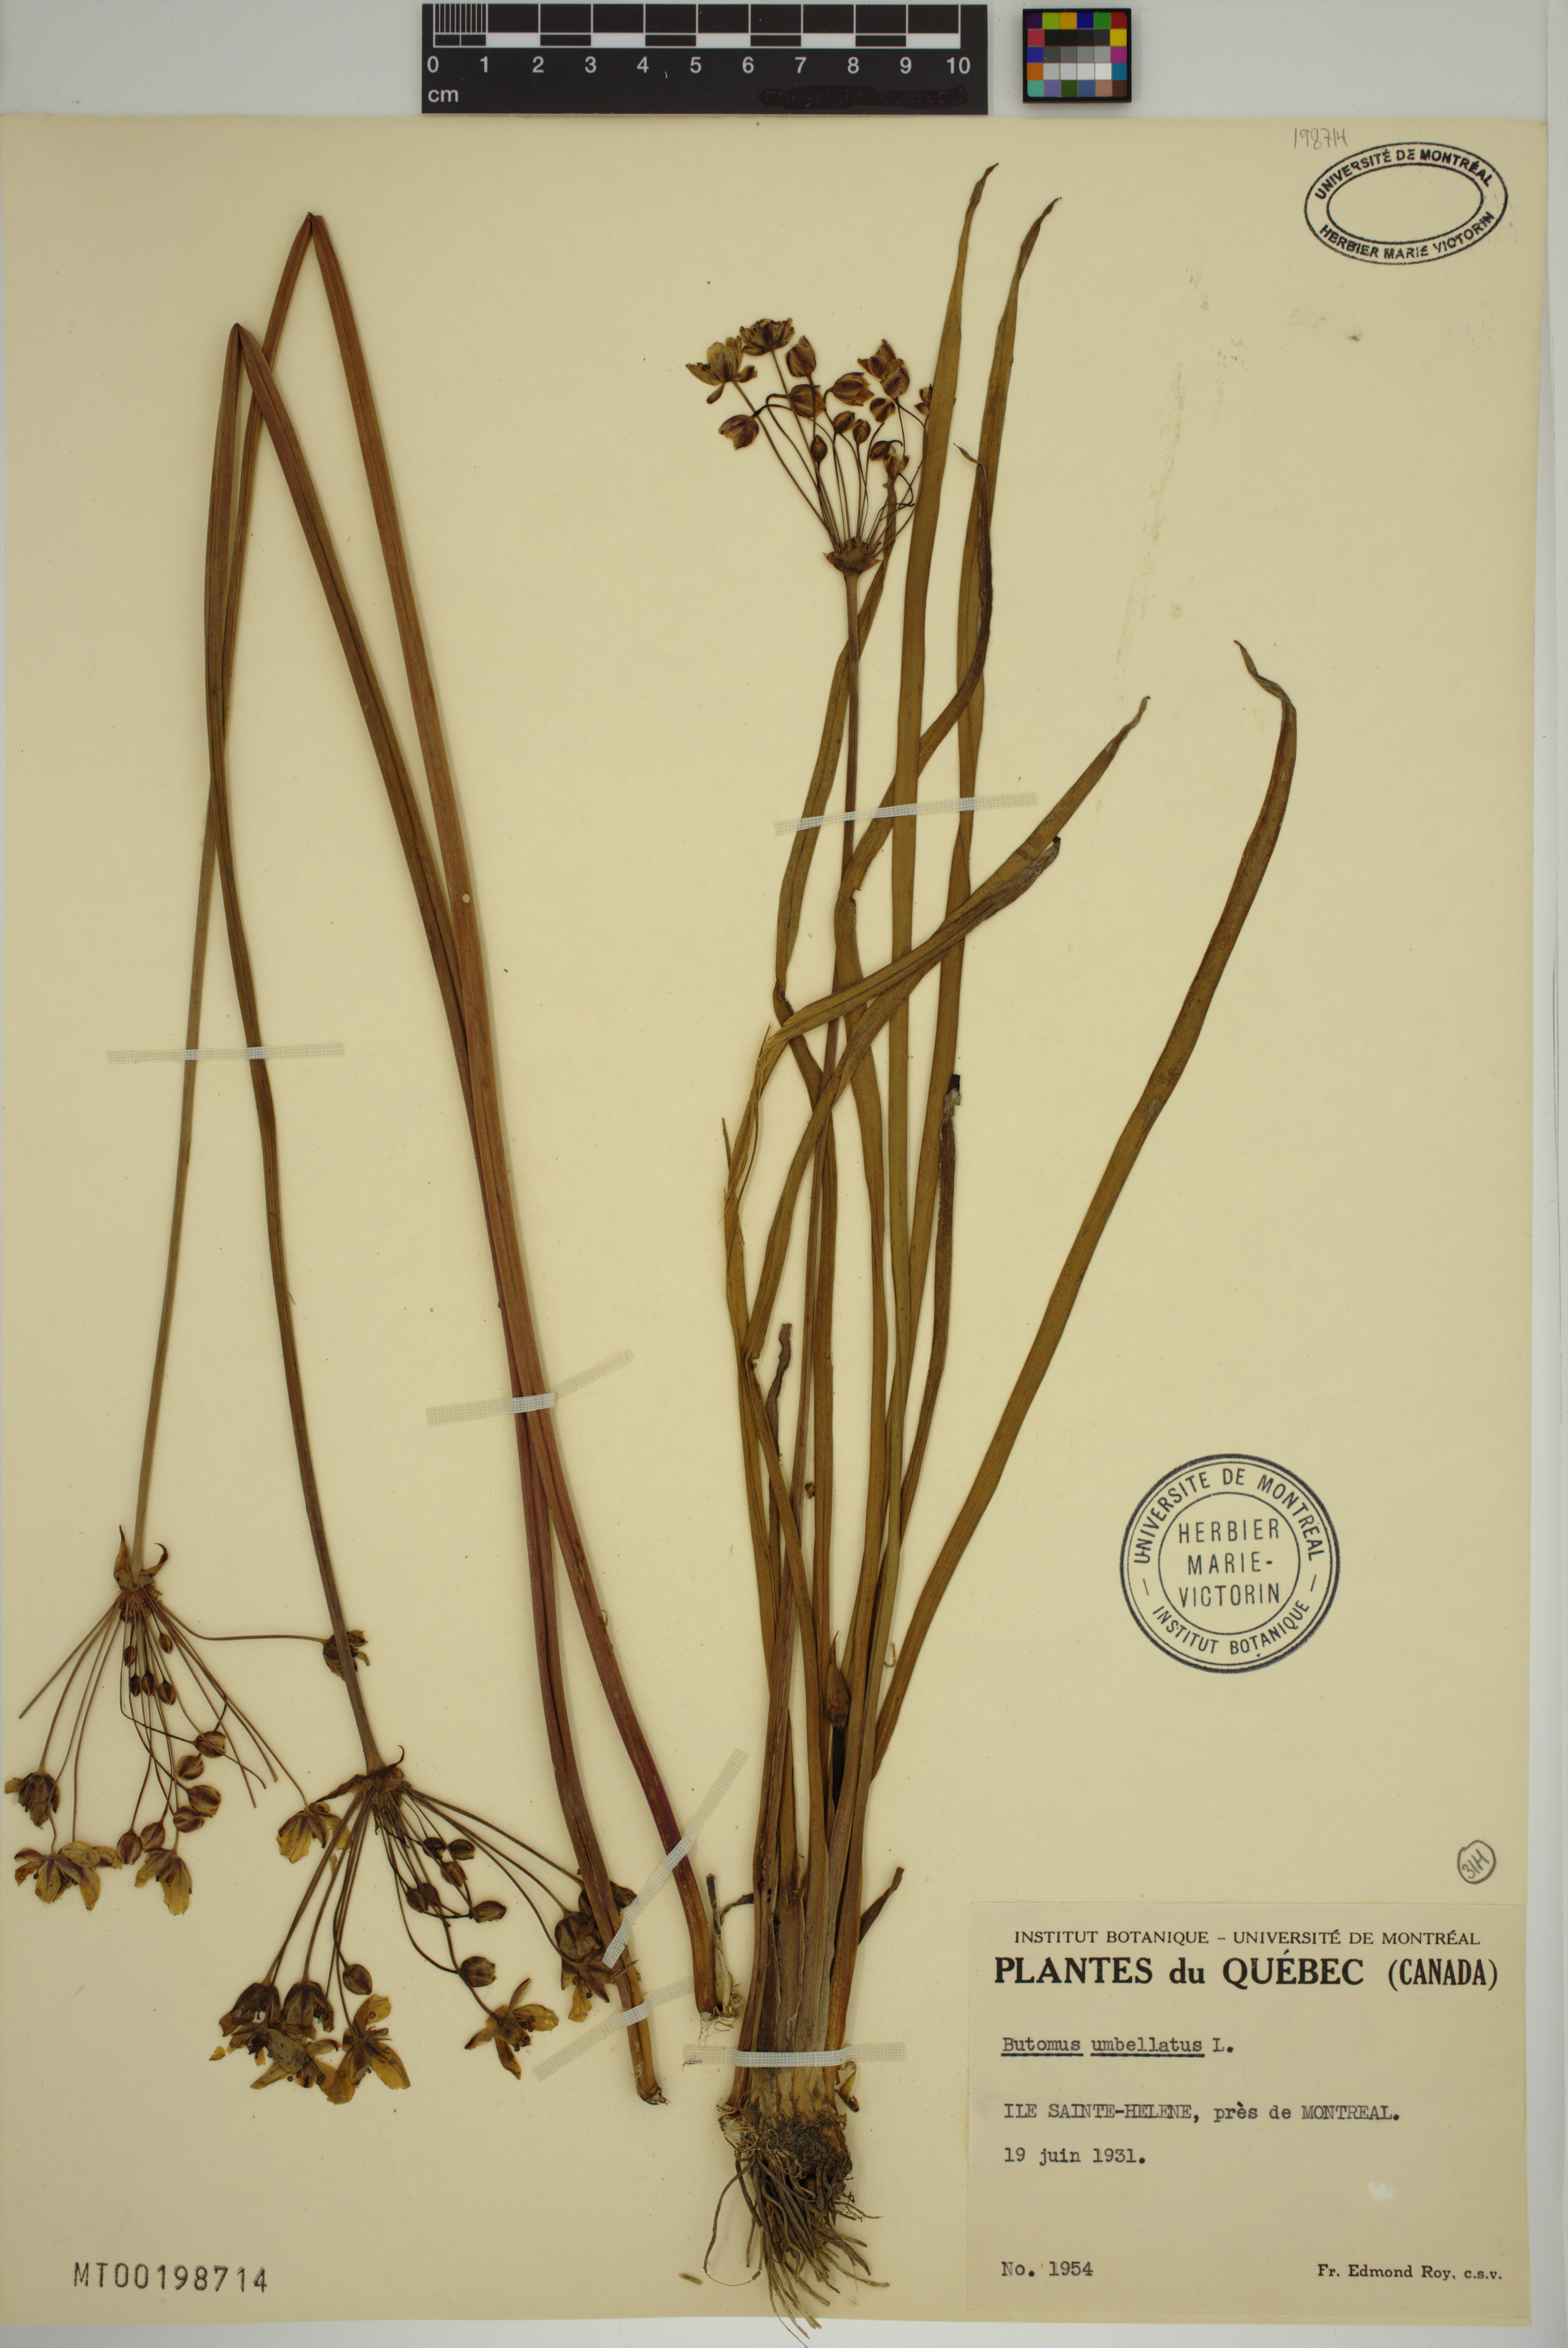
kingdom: Plantae
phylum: Tracheophyta
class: Liliopsida
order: Alismatales
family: Butomaceae
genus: Butomus
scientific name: Butomus umbellatus
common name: Flowering-rush
